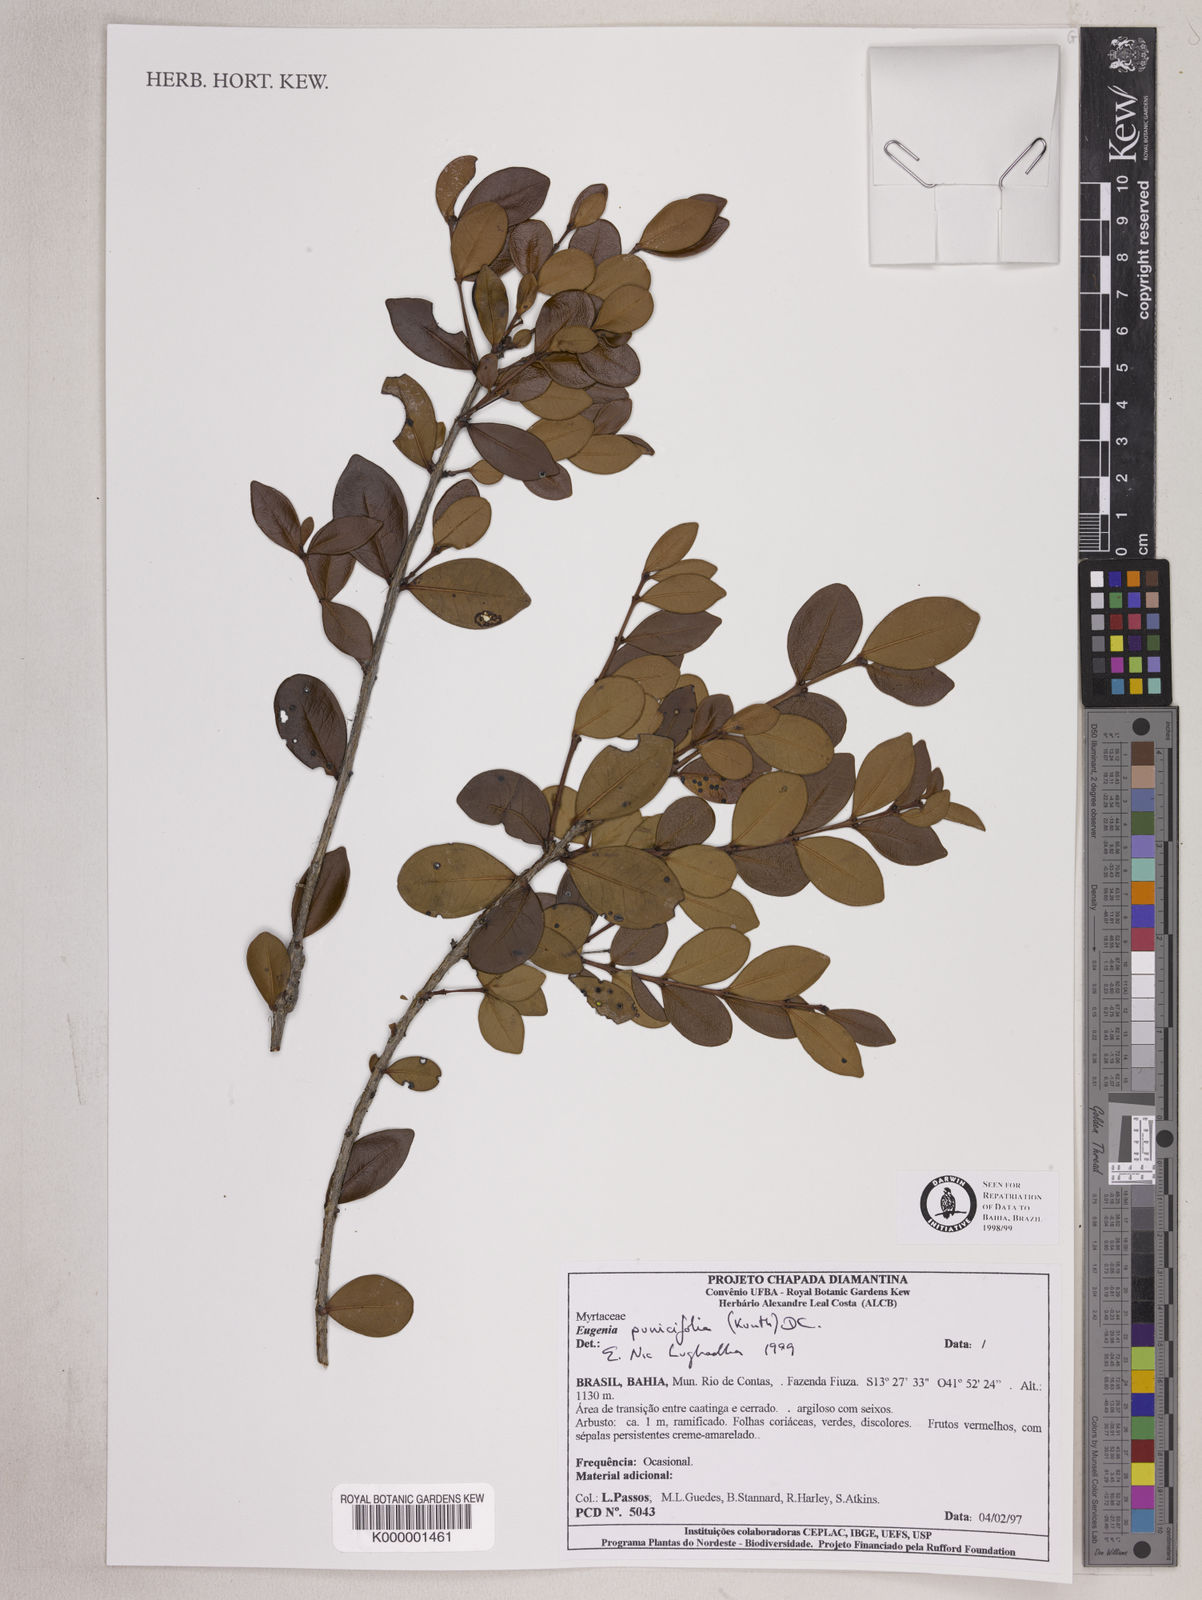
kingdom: Plantae
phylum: Tracheophyta
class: Magnoliopsida
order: Myrtales
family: Myrtaceae
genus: Eugenia
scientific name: Eugenia punicifolia
